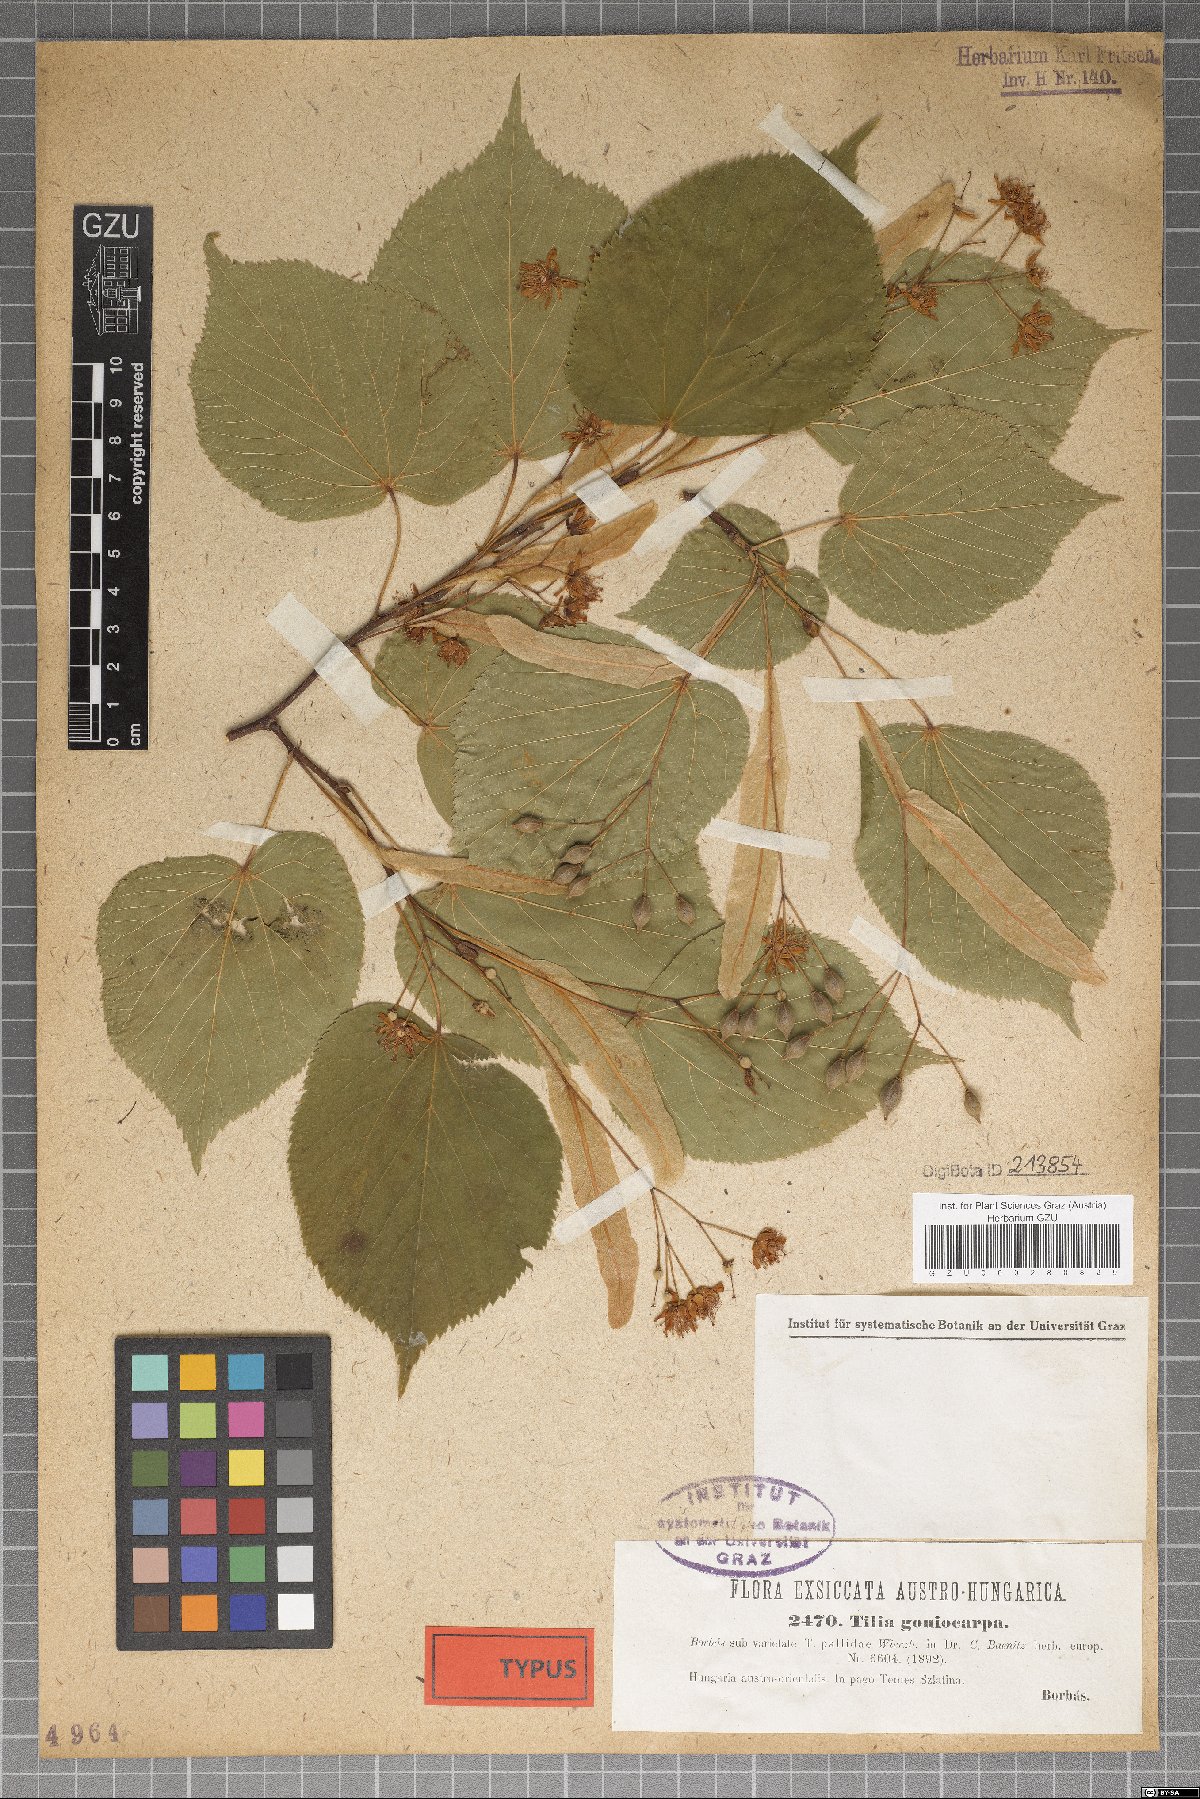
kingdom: Plantae
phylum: Tracheophyta
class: Magnoliopsida
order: Malvales
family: Malvaceae
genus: Tilia
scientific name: Tilia cordata
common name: Small-leaved lime
